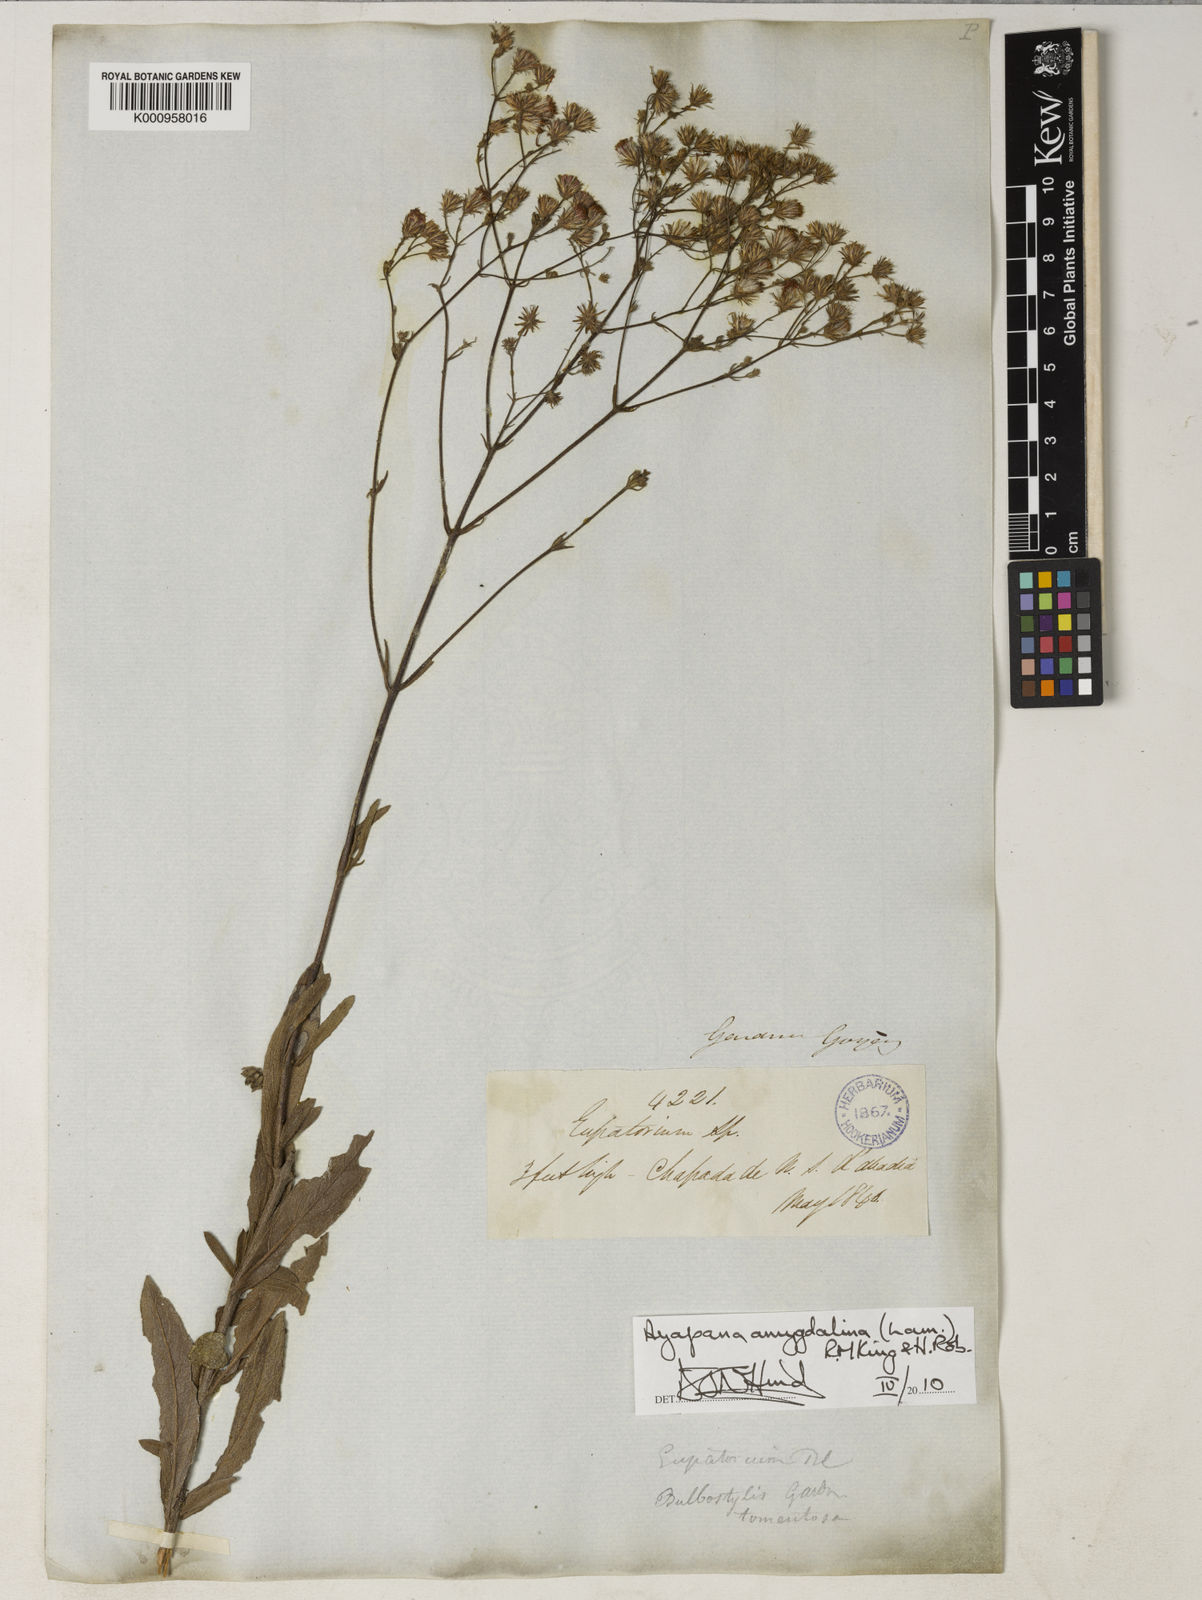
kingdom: Plantae
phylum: Tracheophyta
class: Magnoliopsida
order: Asterales
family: Asteraceae
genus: Ayapana
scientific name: Ayapana amygdalina
